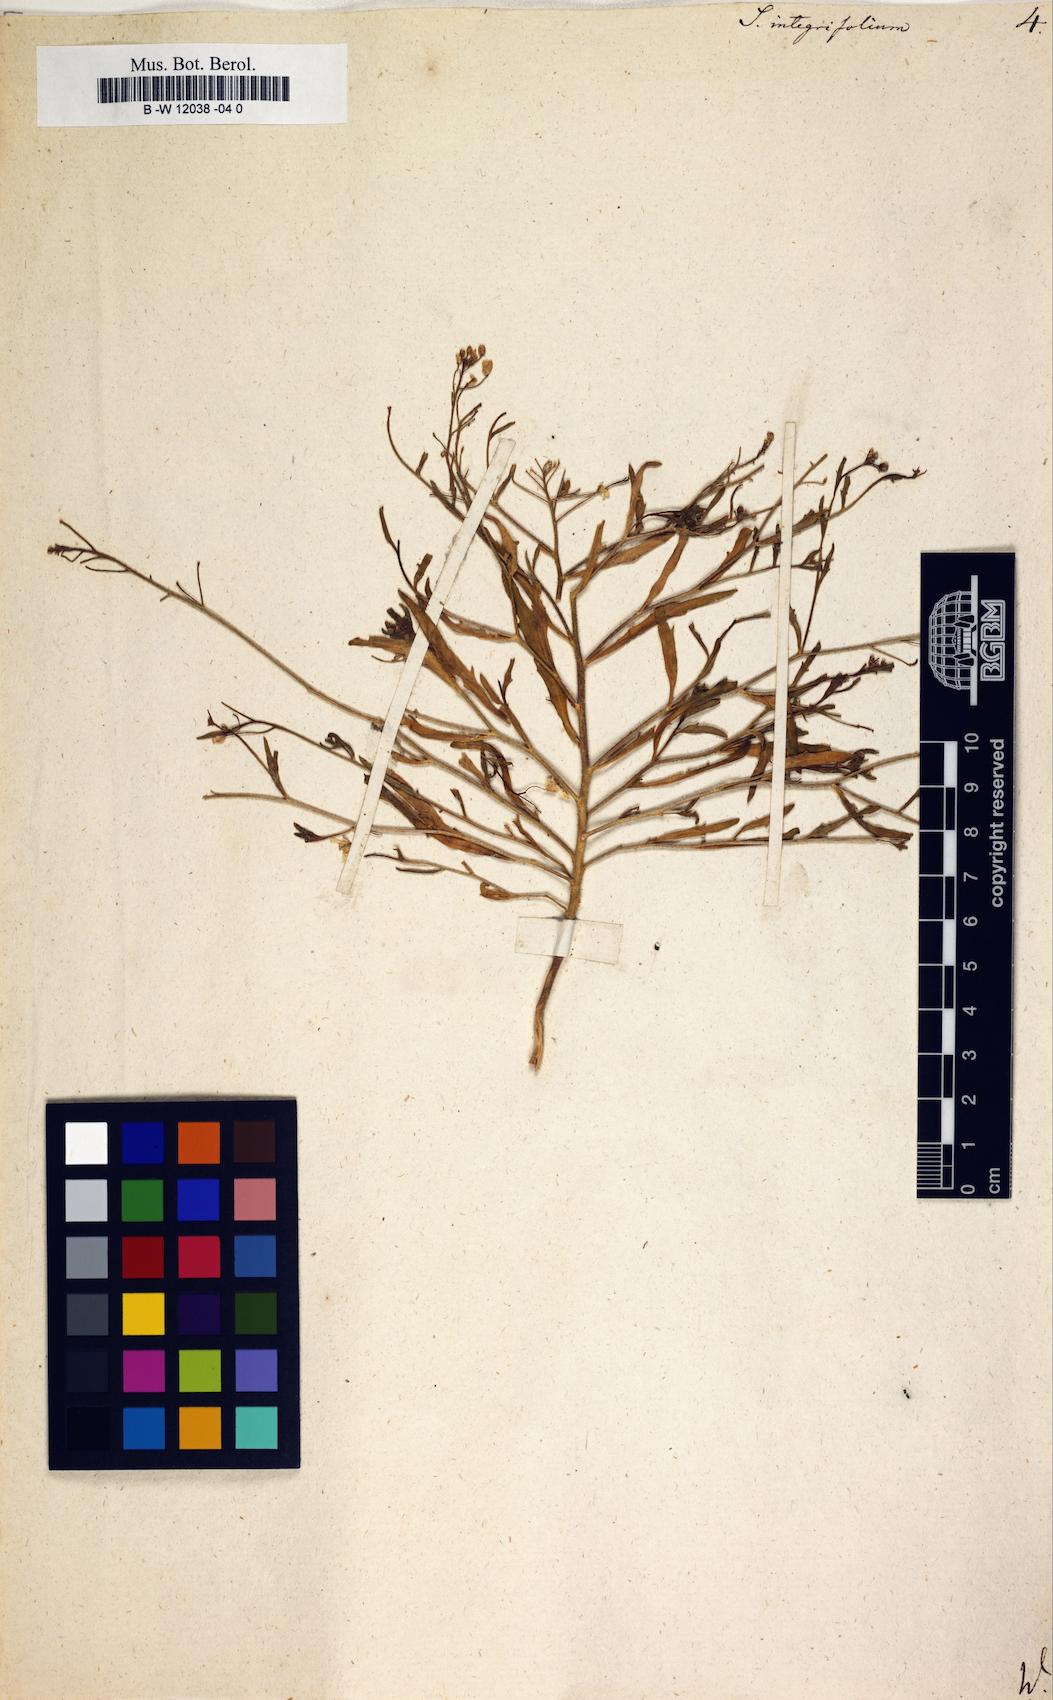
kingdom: Plantae
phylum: Tracheophyta
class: Magnoliopsida
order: Brassicales
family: Brassicaceae
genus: Sisymbrium
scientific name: Sisymbrium integrifolium
